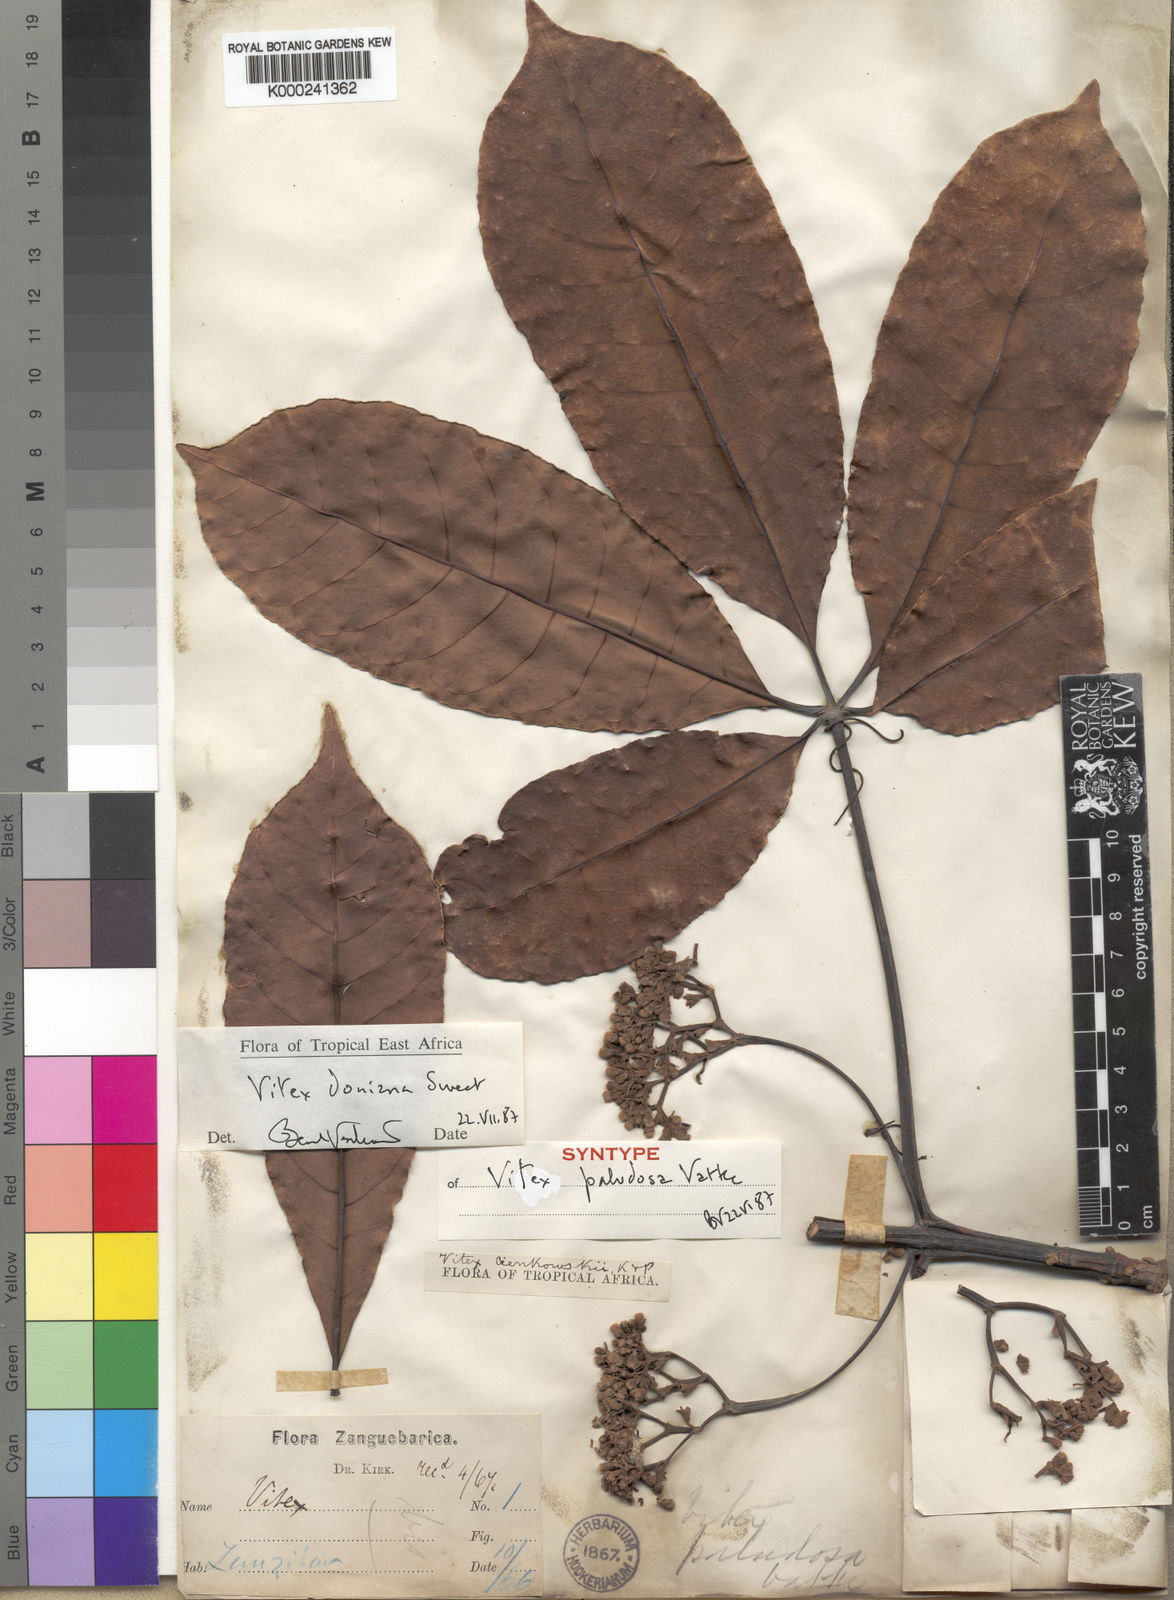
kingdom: Plantae
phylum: Tracheophyta
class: Magnoliopsida
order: Lamiales
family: Lamiaceae
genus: Vitex
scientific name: Vitex doniana
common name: Black plum
